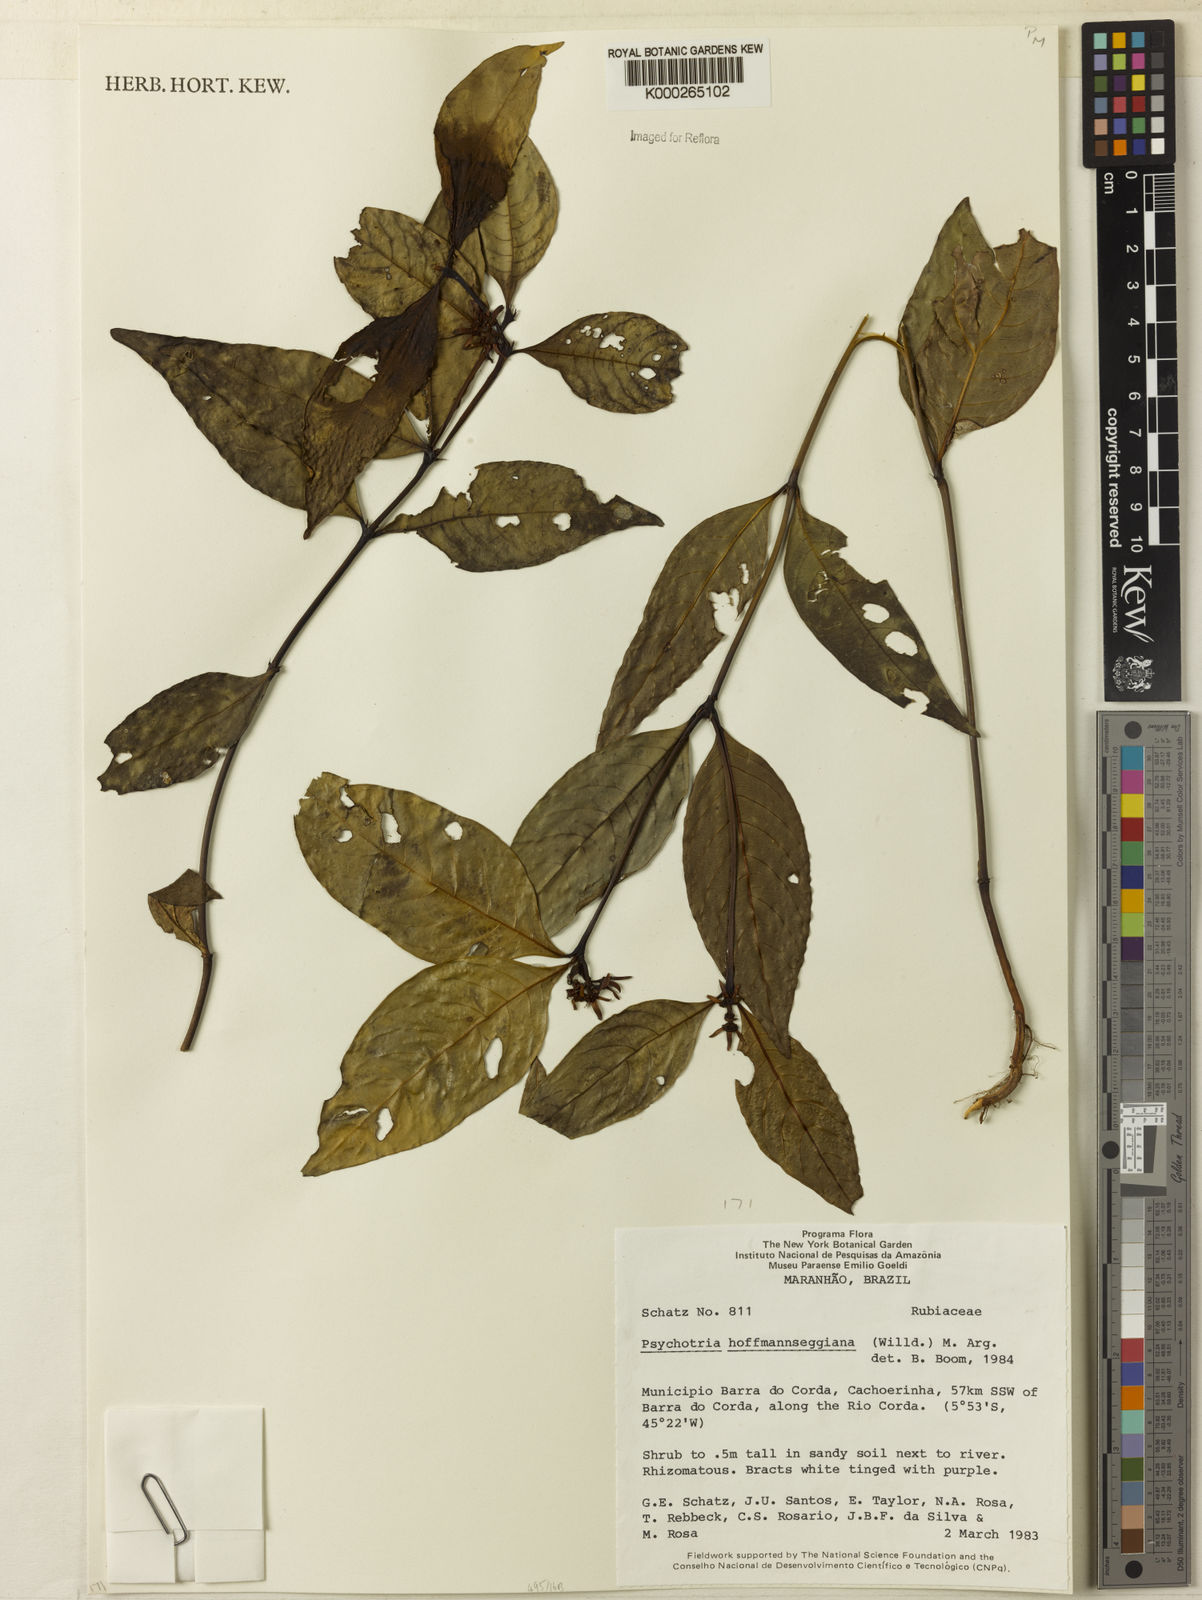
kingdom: Plantae
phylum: Tracheophyta
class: Magnoliopsida
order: Gentianales
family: Rubiaceae
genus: Psychotria
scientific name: Psychotria
